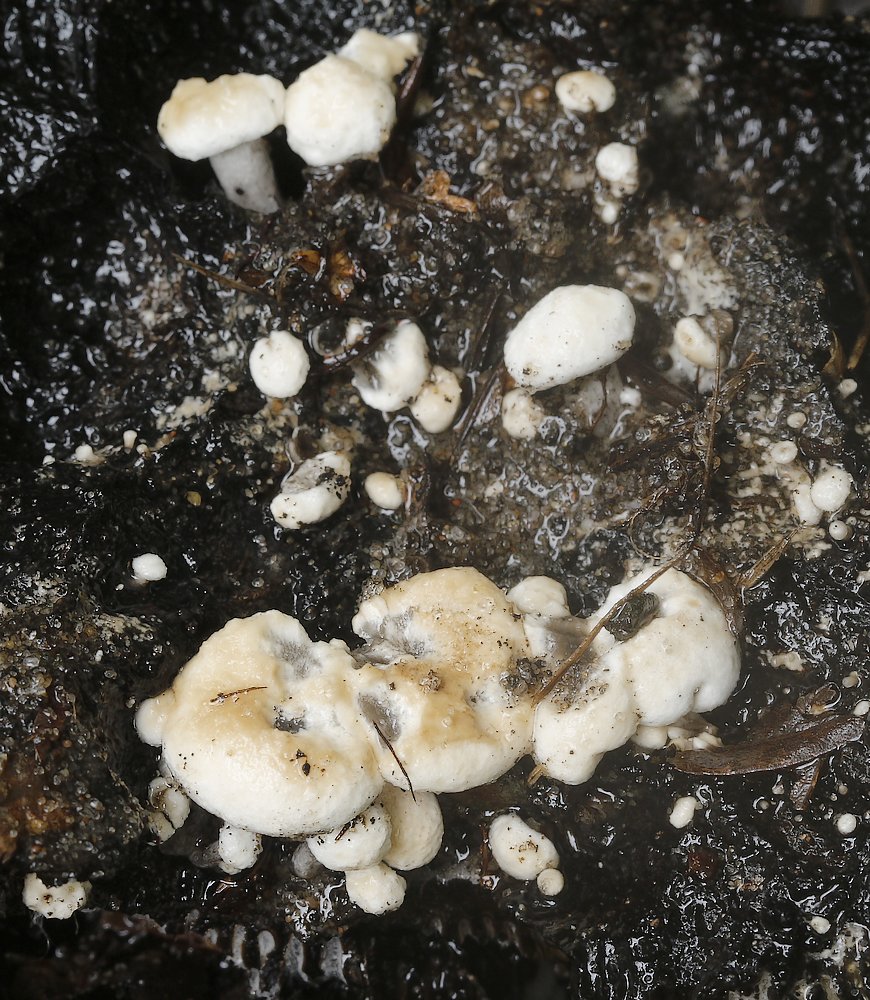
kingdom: Fungi
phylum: Basidiomycota
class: Agaricomycetes
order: Agaricales
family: Lyophyllaceae
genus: Asterophora
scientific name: Asterophora lycoperdoides
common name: brunpudret snyltehat
